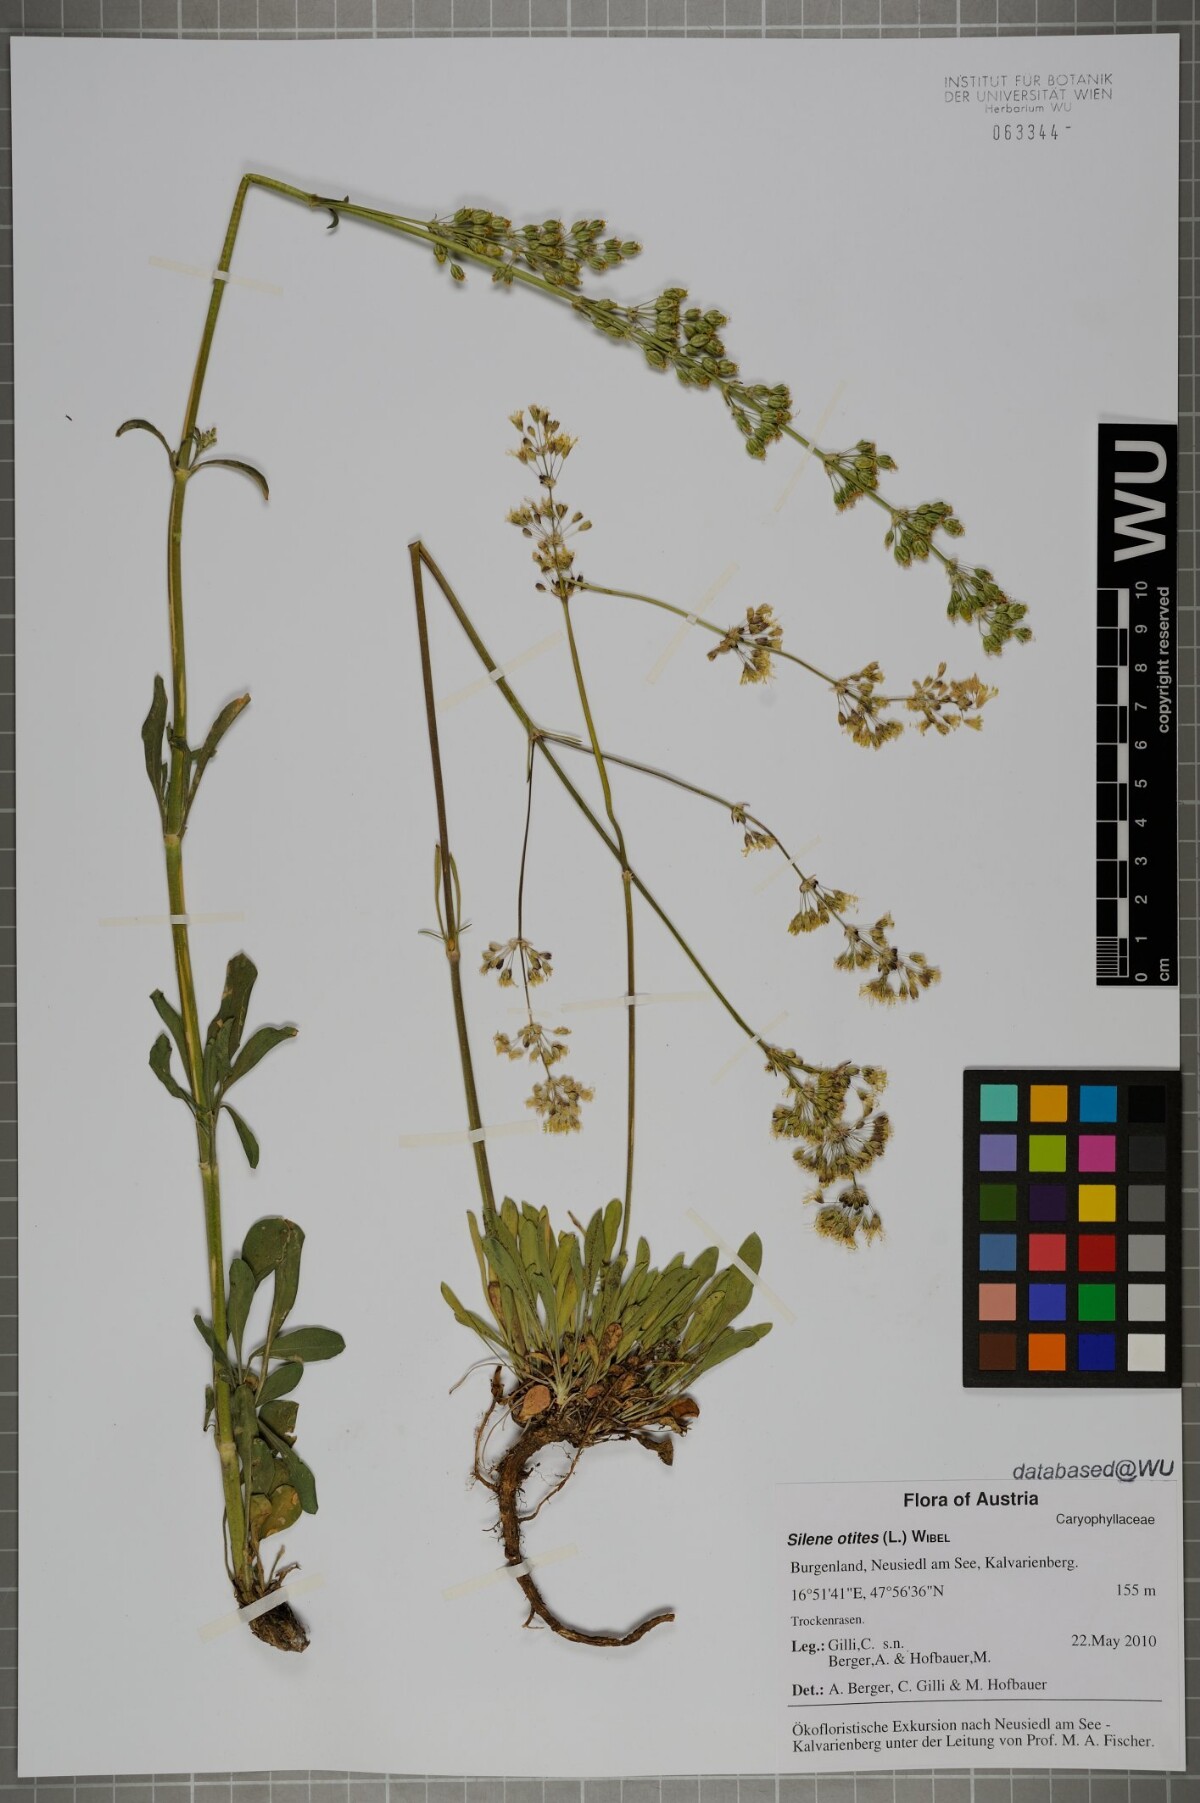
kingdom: Plantae
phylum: Tracheophyta
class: Magnoliopsida
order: Caryophyllales
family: Caryophyllaceae
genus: Silene
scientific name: Silene otites
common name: Spanish catchfly
